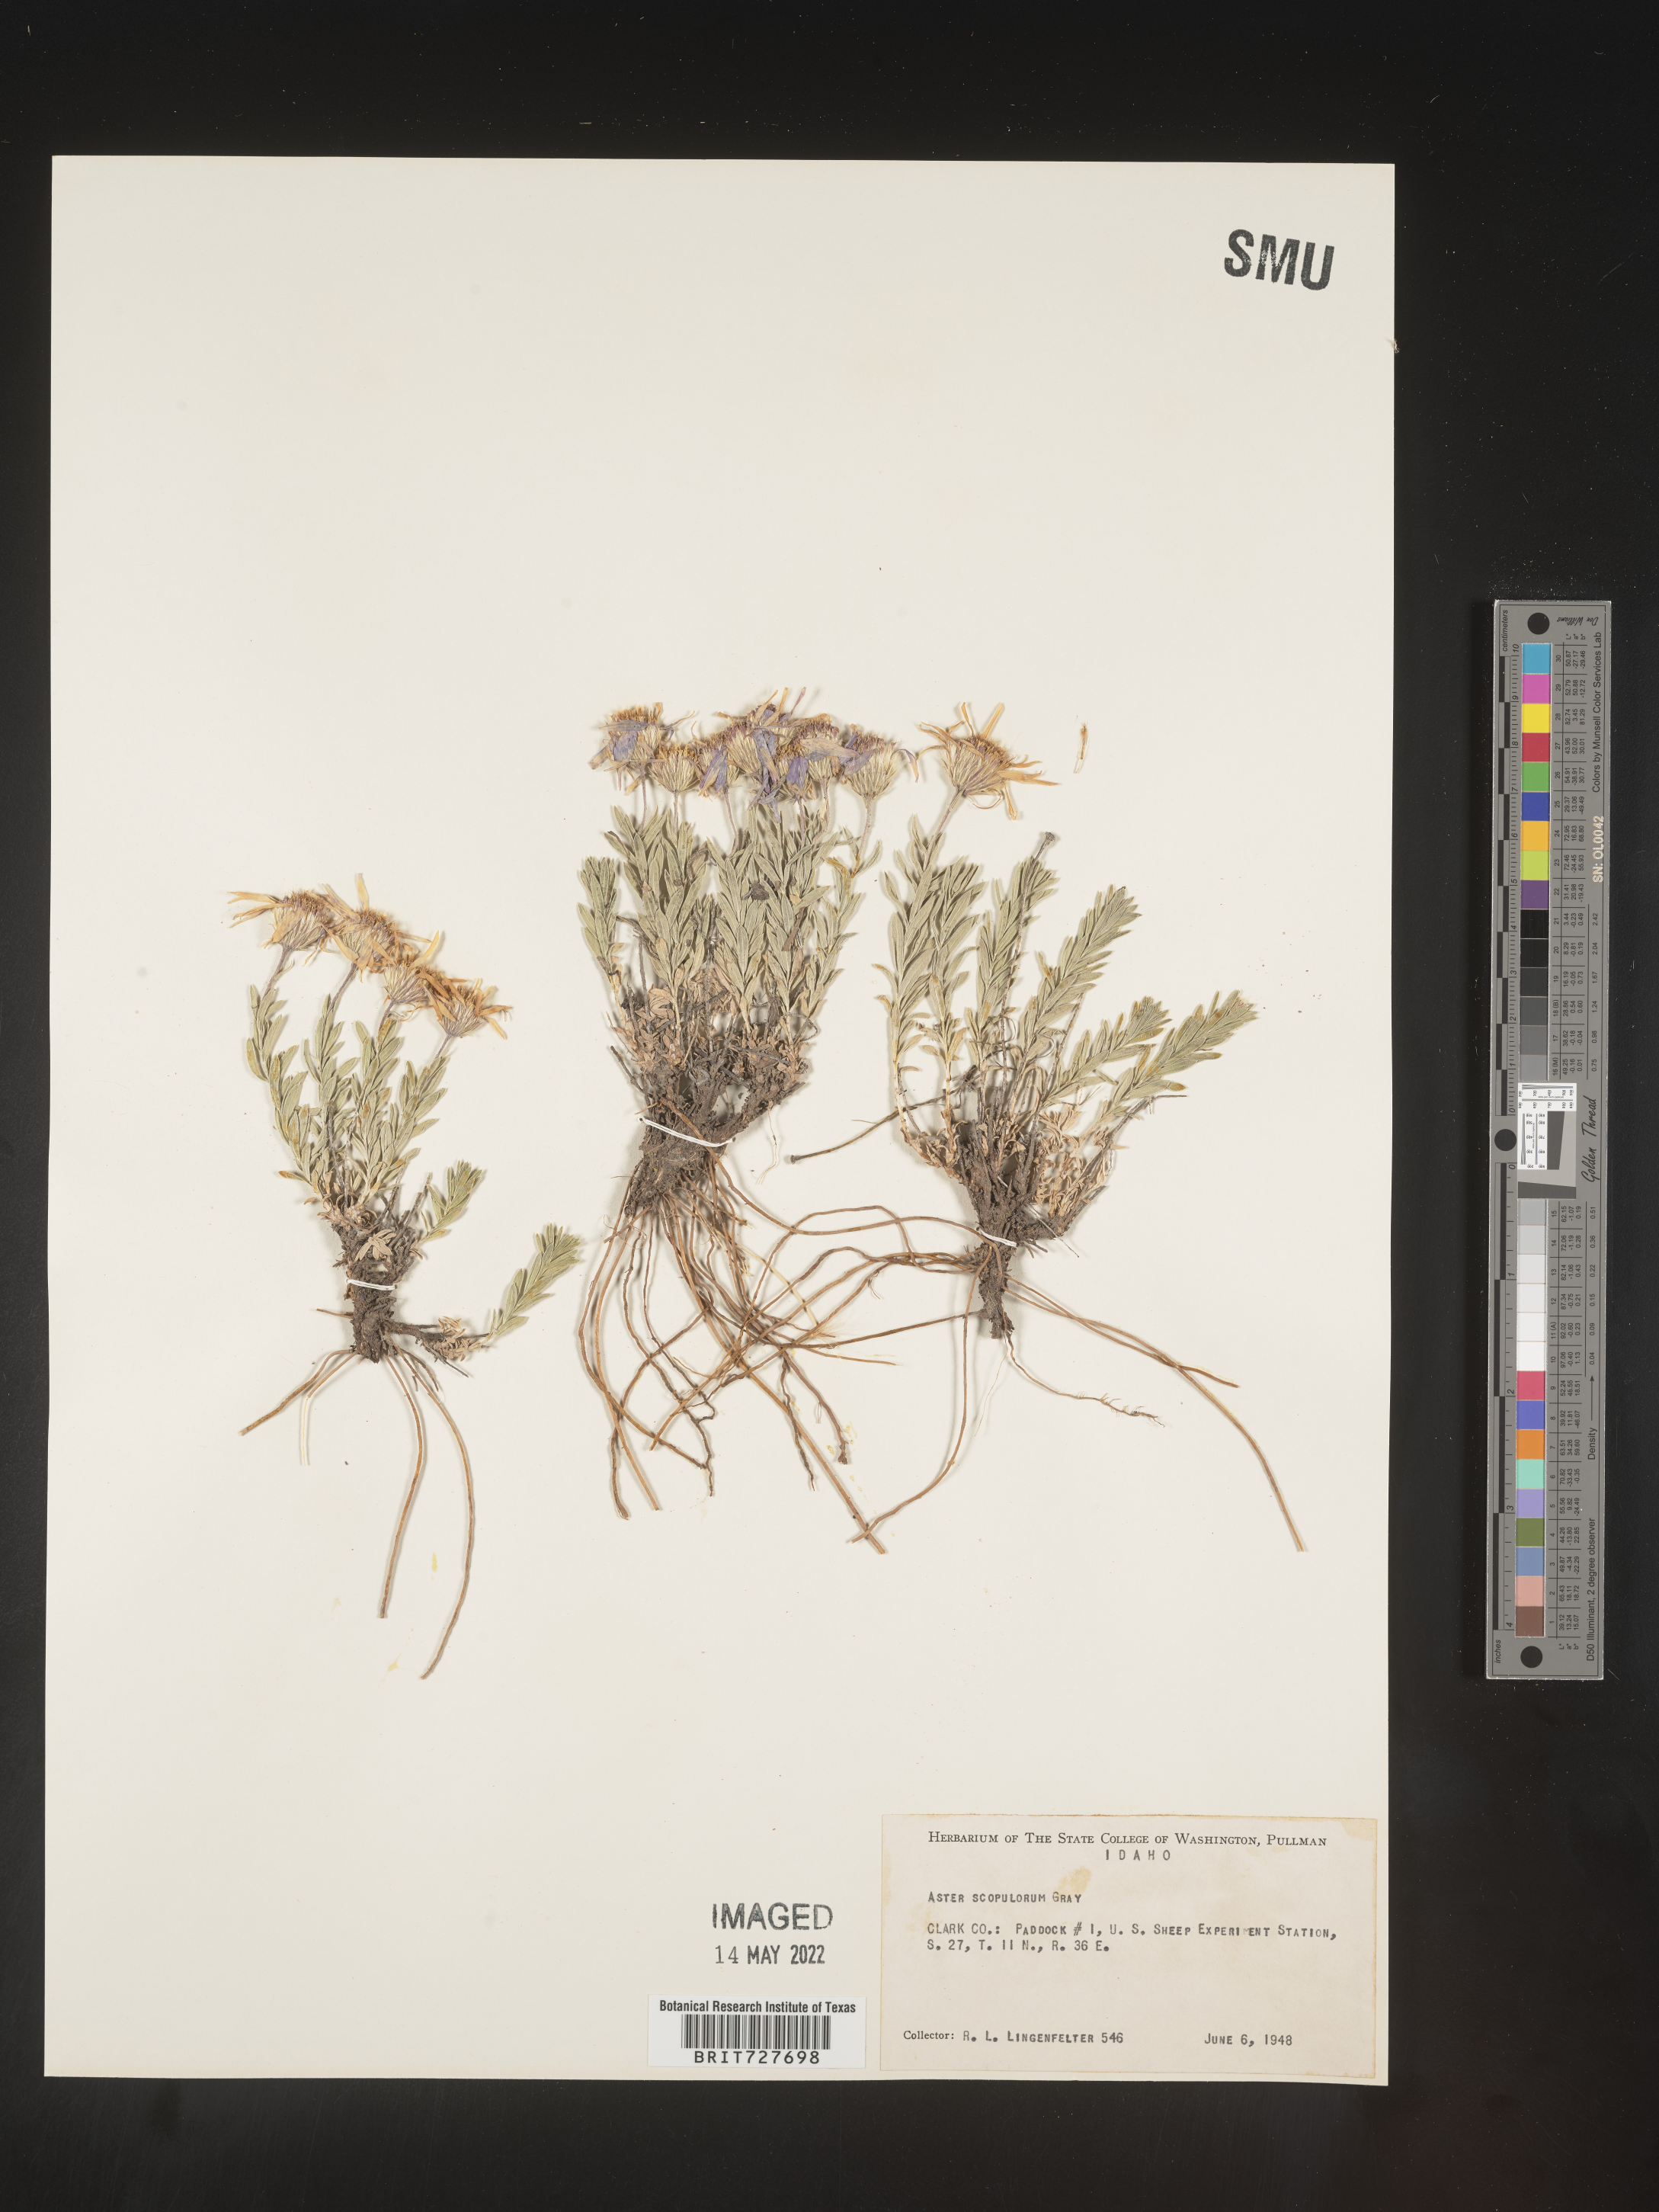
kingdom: Plantae
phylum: Tracheophyta
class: Magnoliopsida
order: Asterales
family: Asteraceae
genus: Ionactis
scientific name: Ionactis alpina
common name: Crag aster
